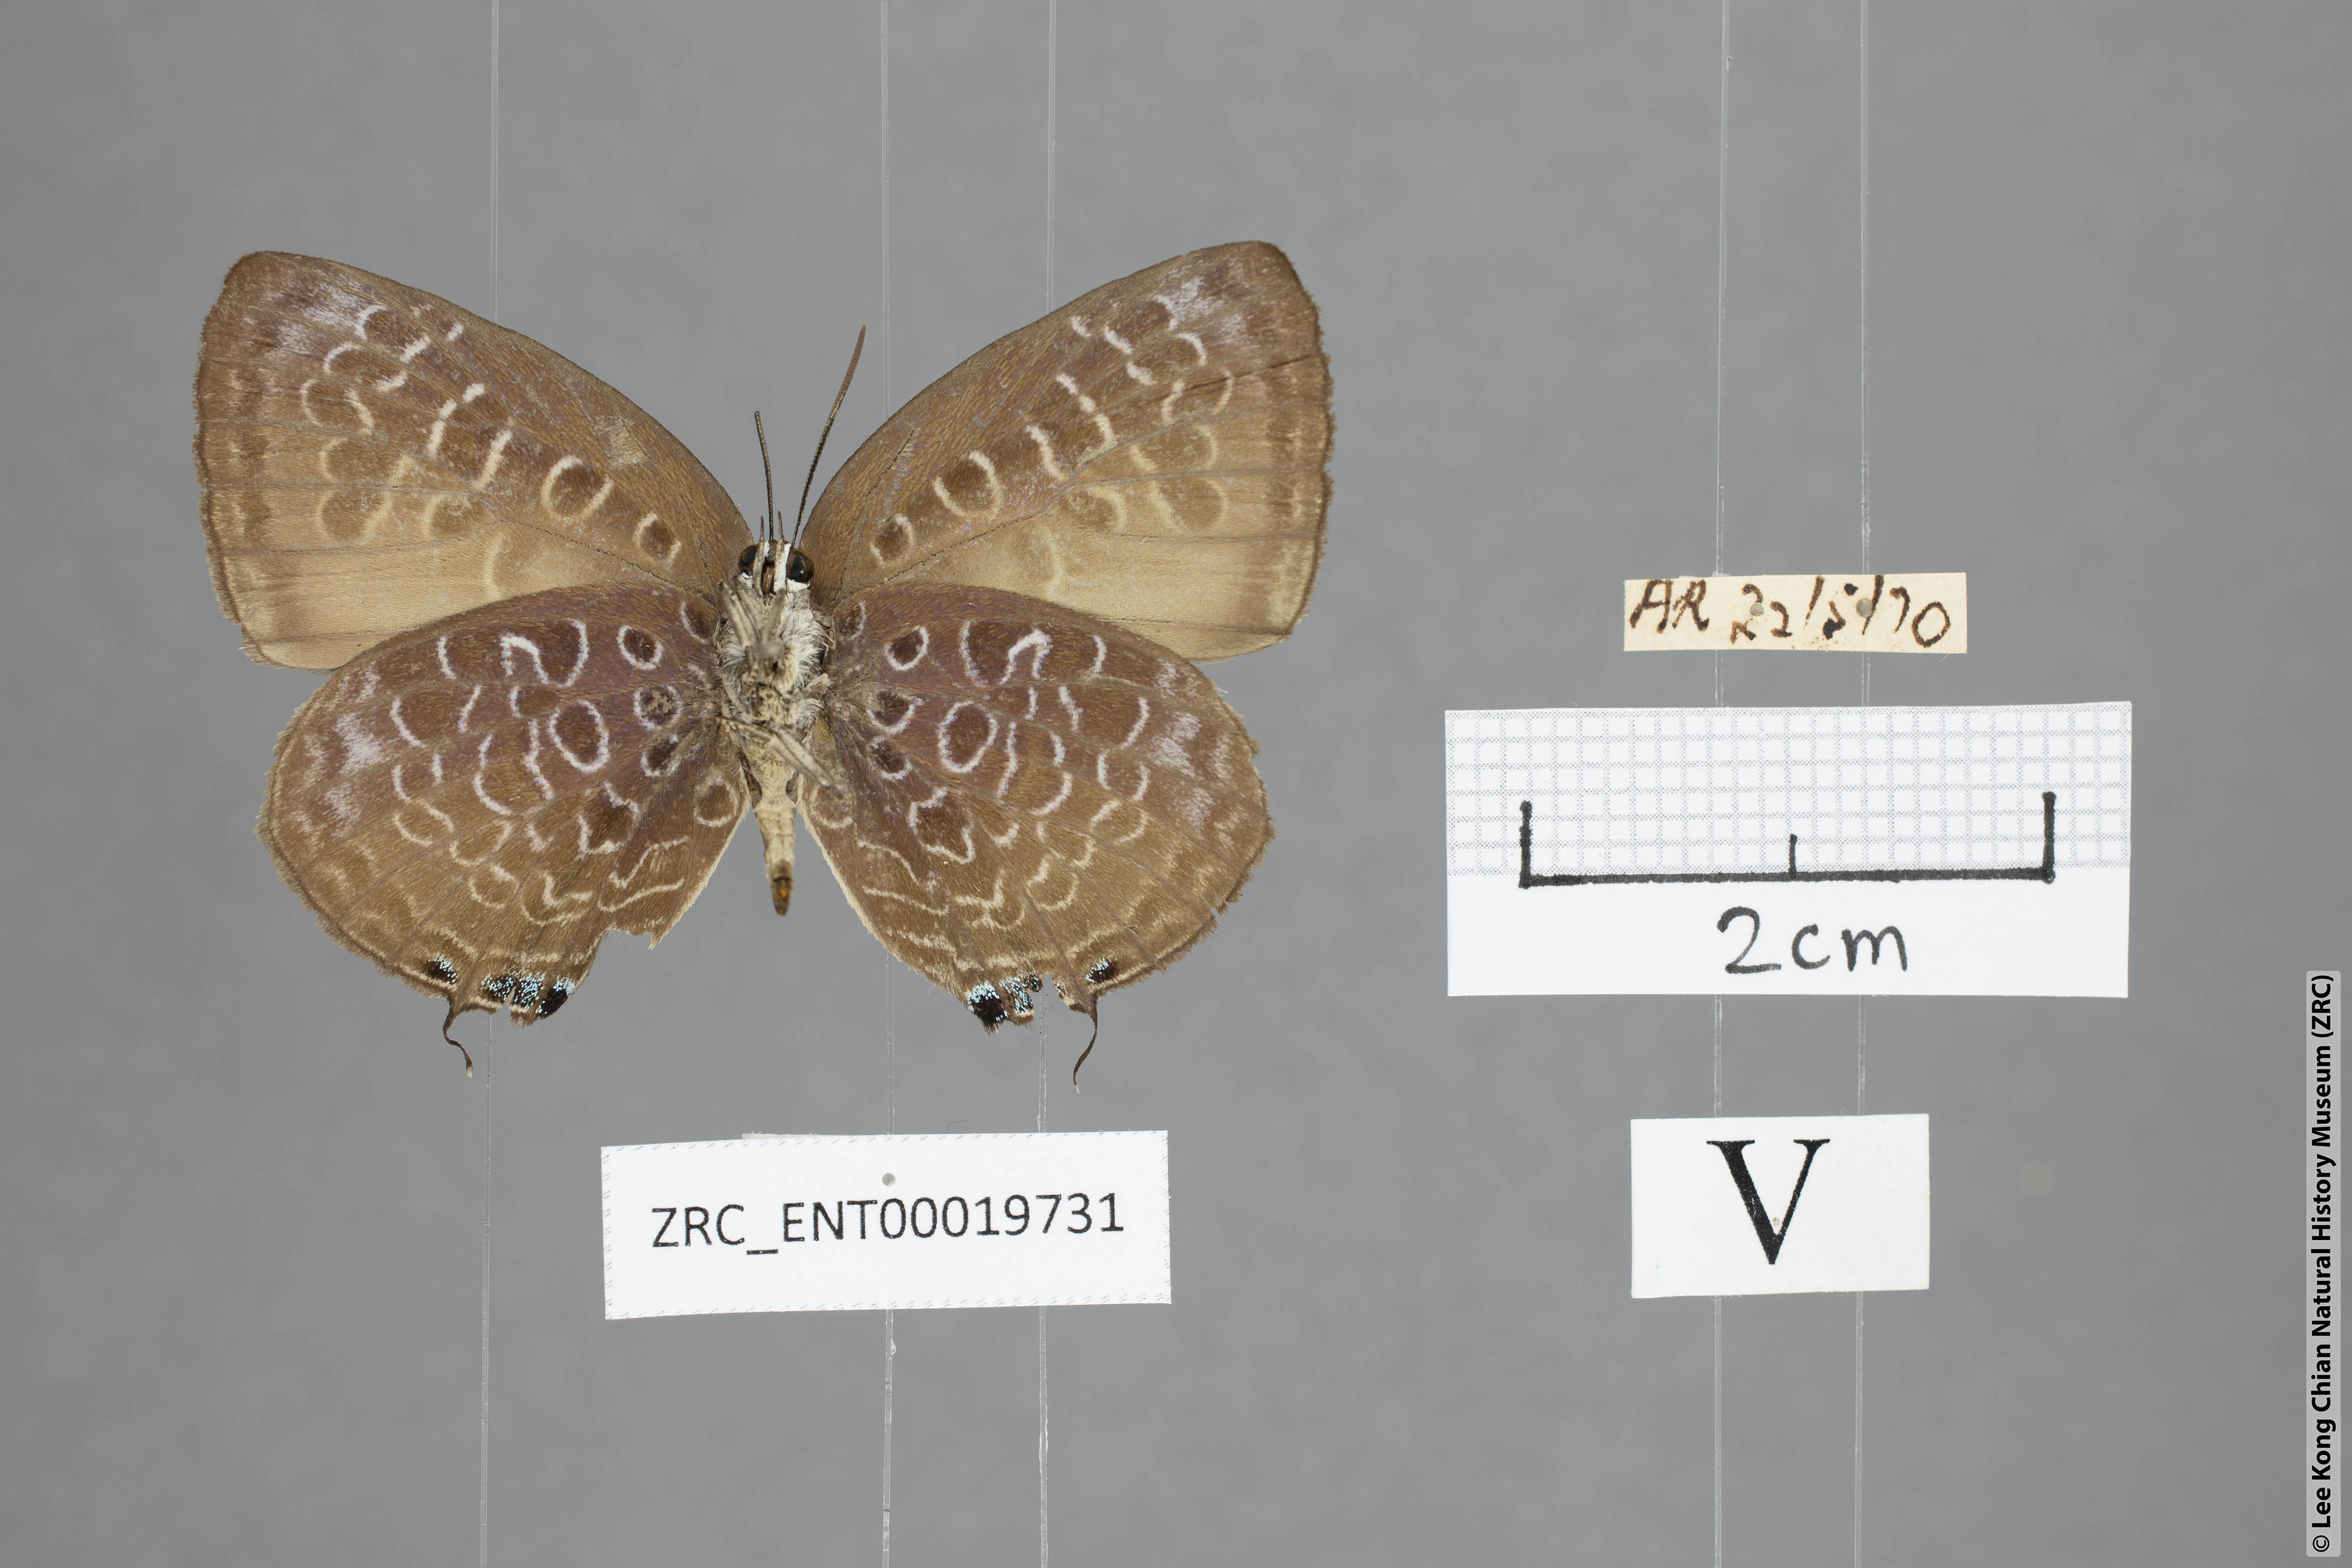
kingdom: Animalia
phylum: Arthropoda
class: Insecta
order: Lepidoptera
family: Lycaenidae
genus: Arhopala
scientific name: Arhopala myrzala
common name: Malayan oakblue
